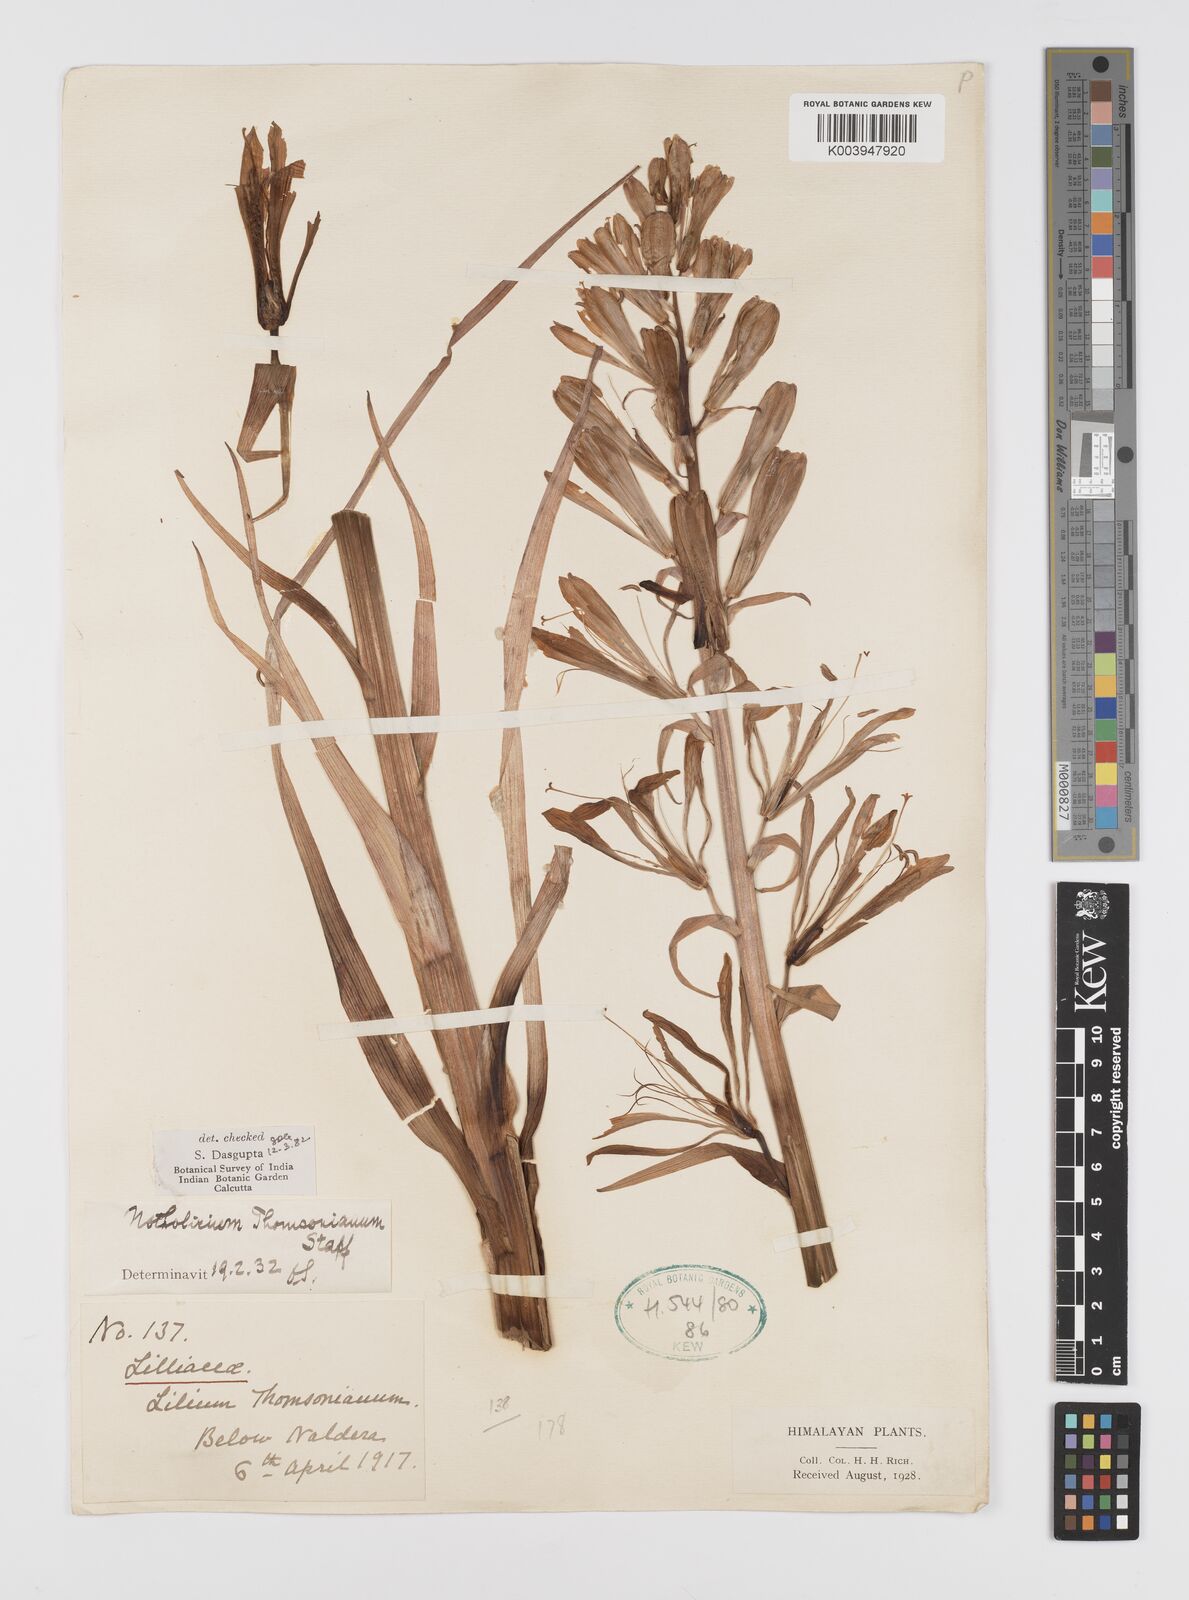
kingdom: Plantae
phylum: Tracheophyta
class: Liliopsida
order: Liliales
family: Liliaceae
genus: Notholirion
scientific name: Notholirion thomsonianum
